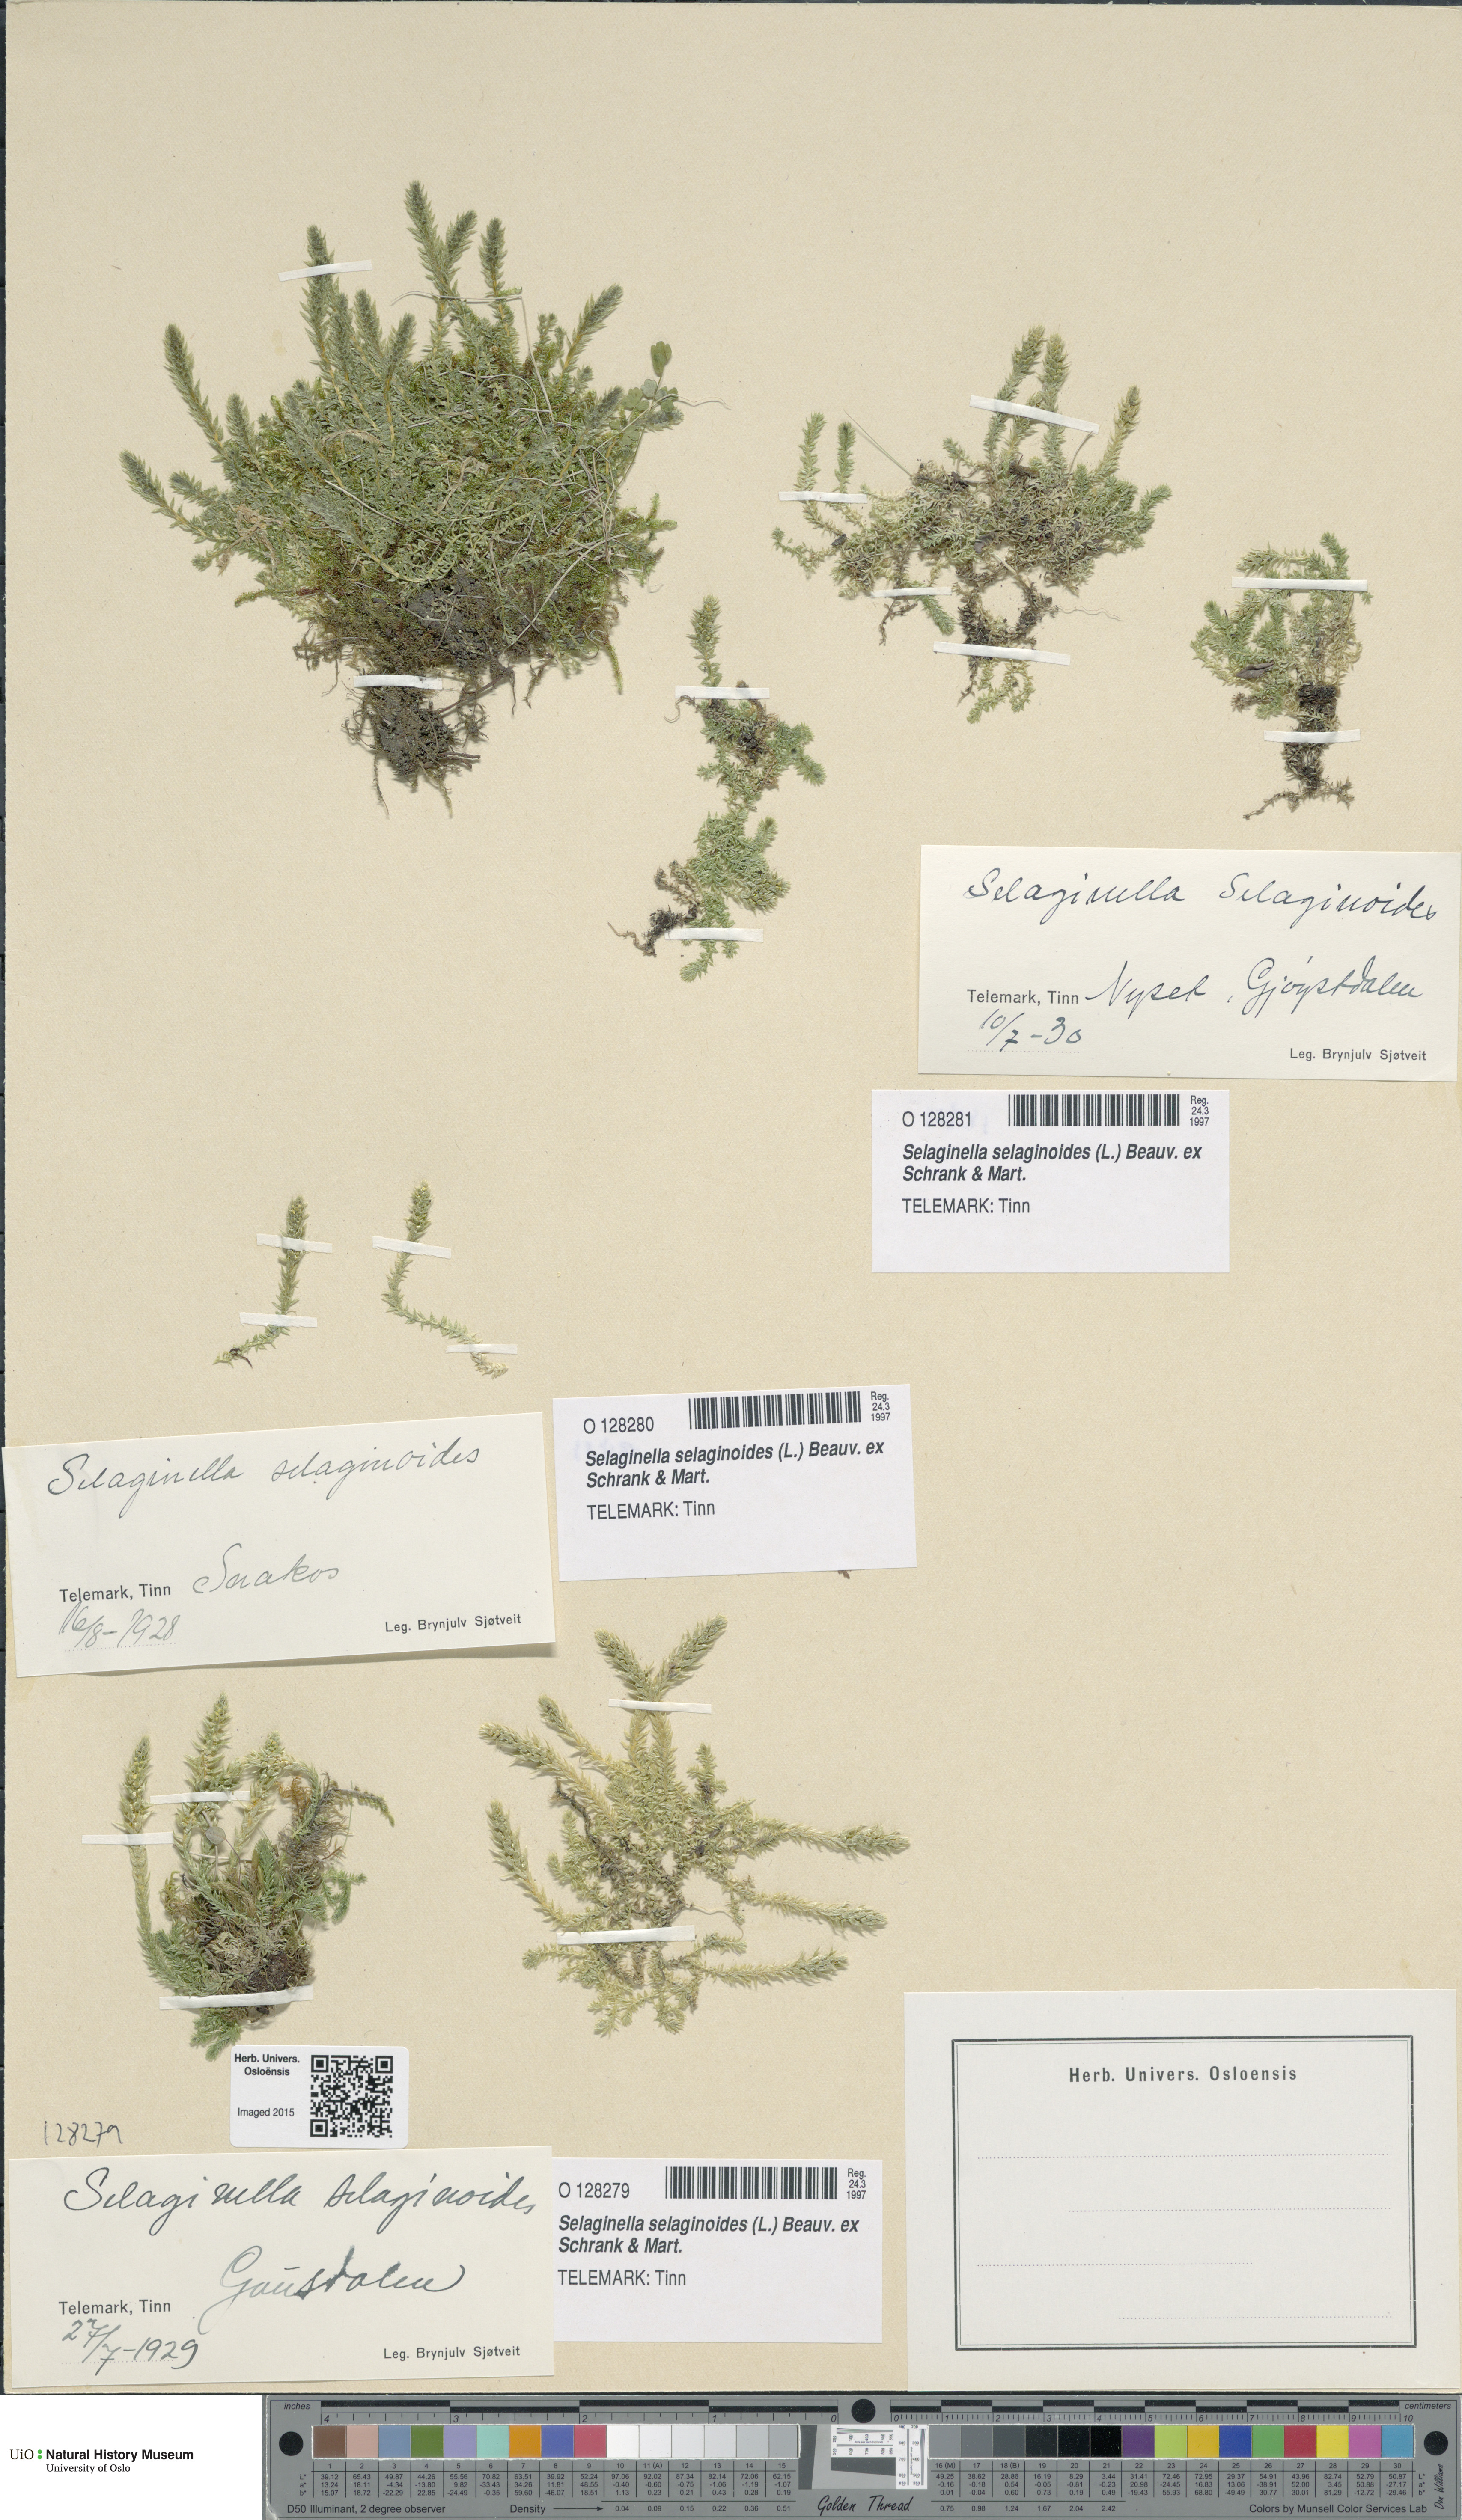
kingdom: Plantae
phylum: Tracheophyta
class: Lycopodiopsida
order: Selaginellales
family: Selaginellaceae
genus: Selaginella
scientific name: Selaginella selaginoides
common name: Prickly mountain-moss
